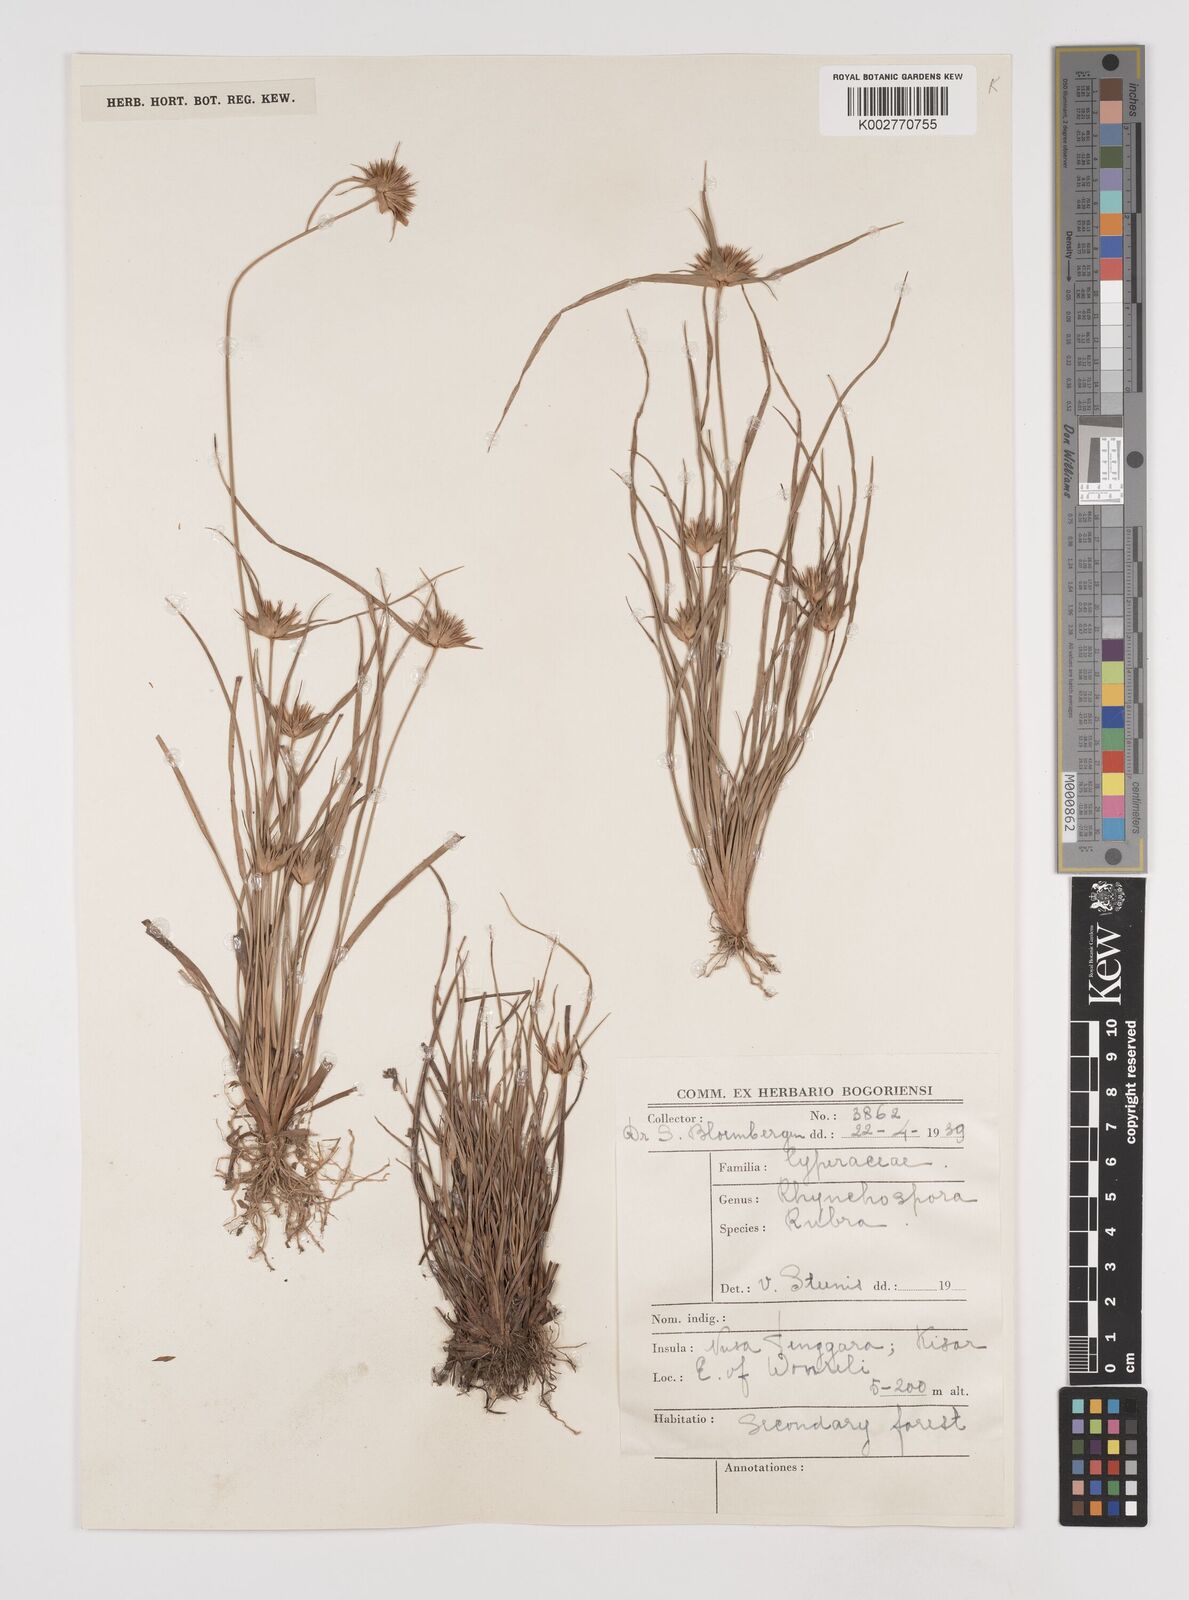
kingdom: Plantae
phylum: Tracheophyta
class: Liliopsida
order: Poales
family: Cyperaceae
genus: Rhynchospora
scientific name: Rhynchospora rubra
